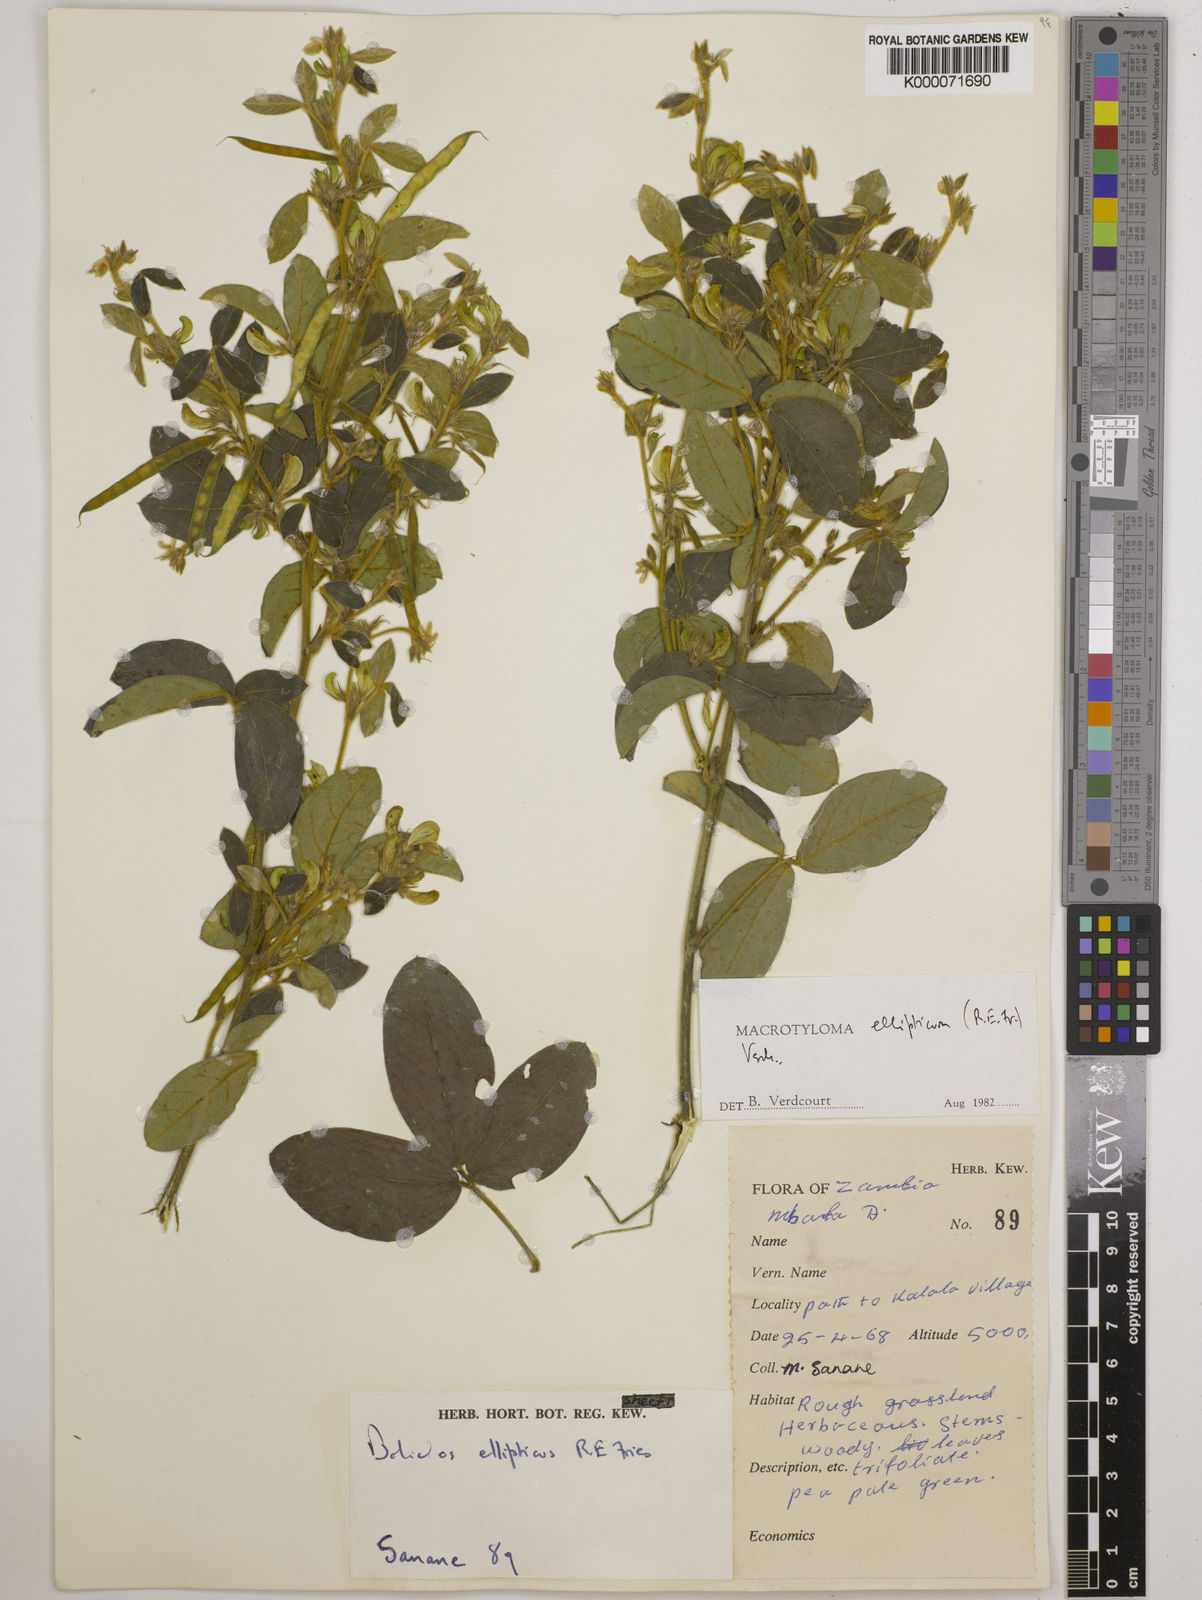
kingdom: Plantae
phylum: Tracheophyta
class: Magnoliopsida
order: Fabales
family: Fabaceae
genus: Macrotyloma
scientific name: Macrotyloma ellipticum
